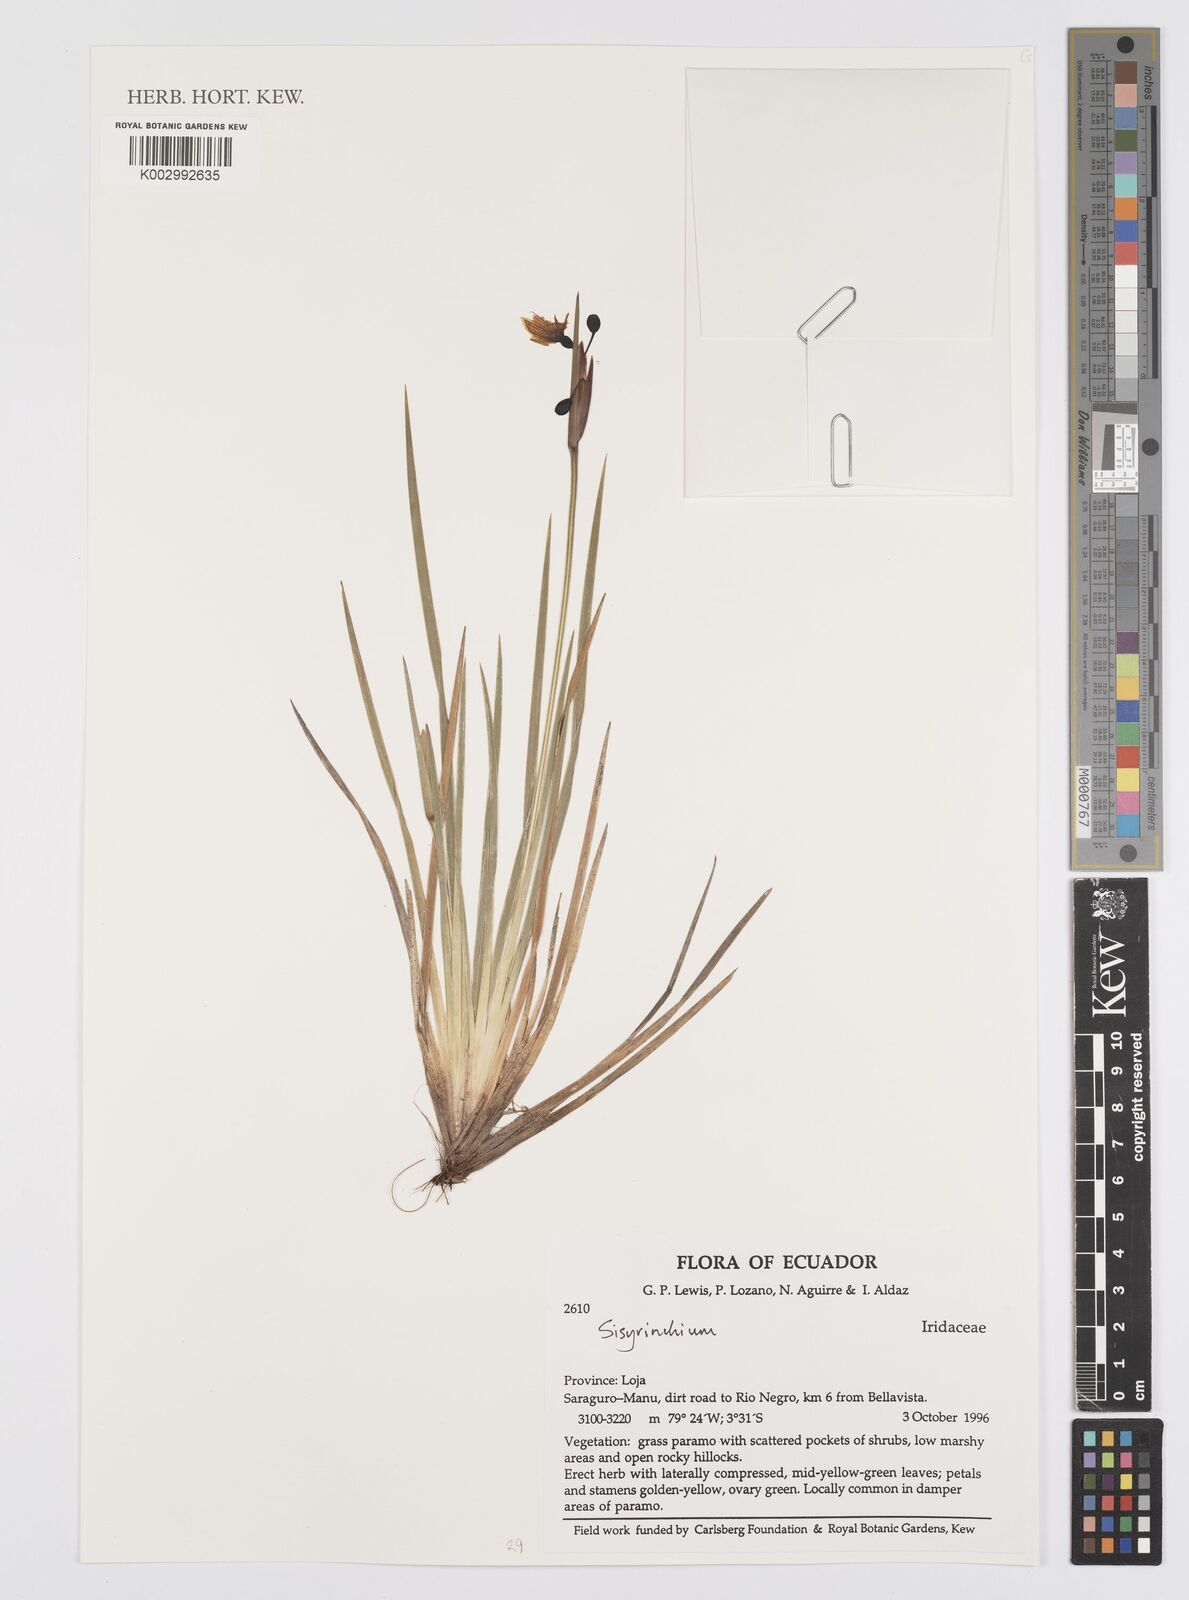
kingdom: Plantae
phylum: Tracheophyta
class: Liliopsida
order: Asparagales
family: Iridaceae
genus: Sisyrinchium
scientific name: Sisyrinchium
